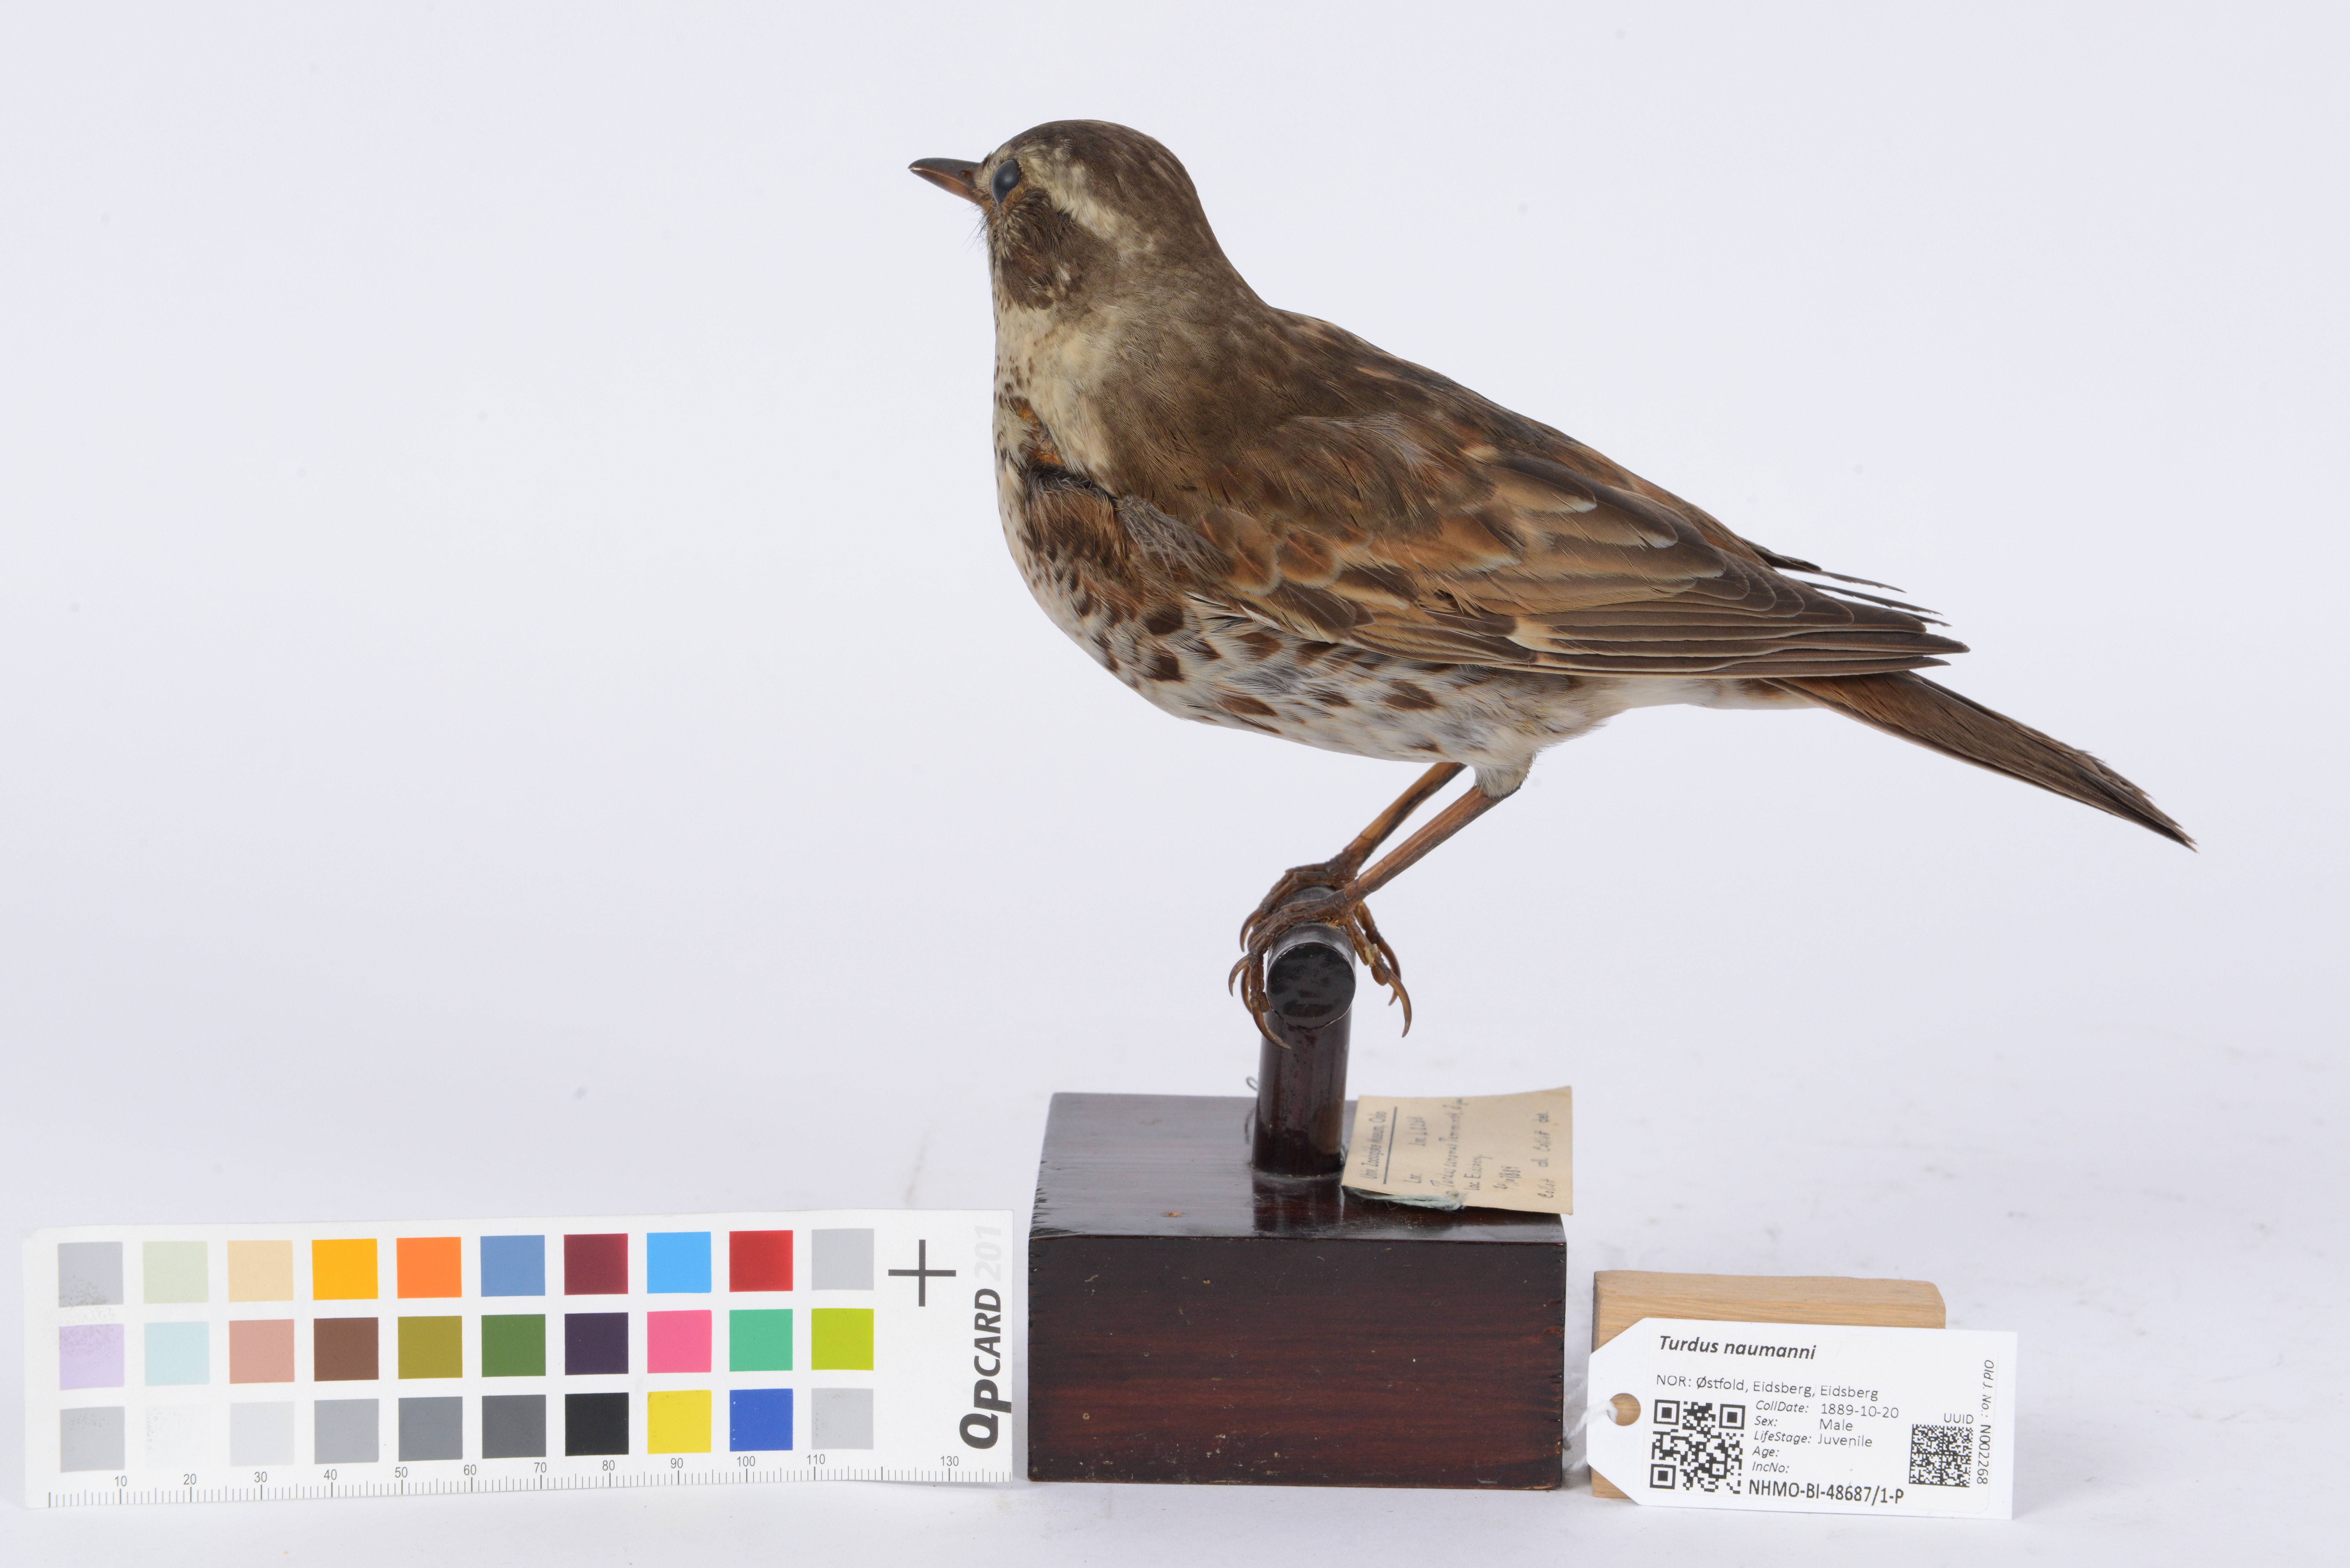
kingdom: Animalia
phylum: Chordata
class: Aves
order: Passeriformes
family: Turdidae
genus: Turdus
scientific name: Turdus naumanni
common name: Naumann's thrush
